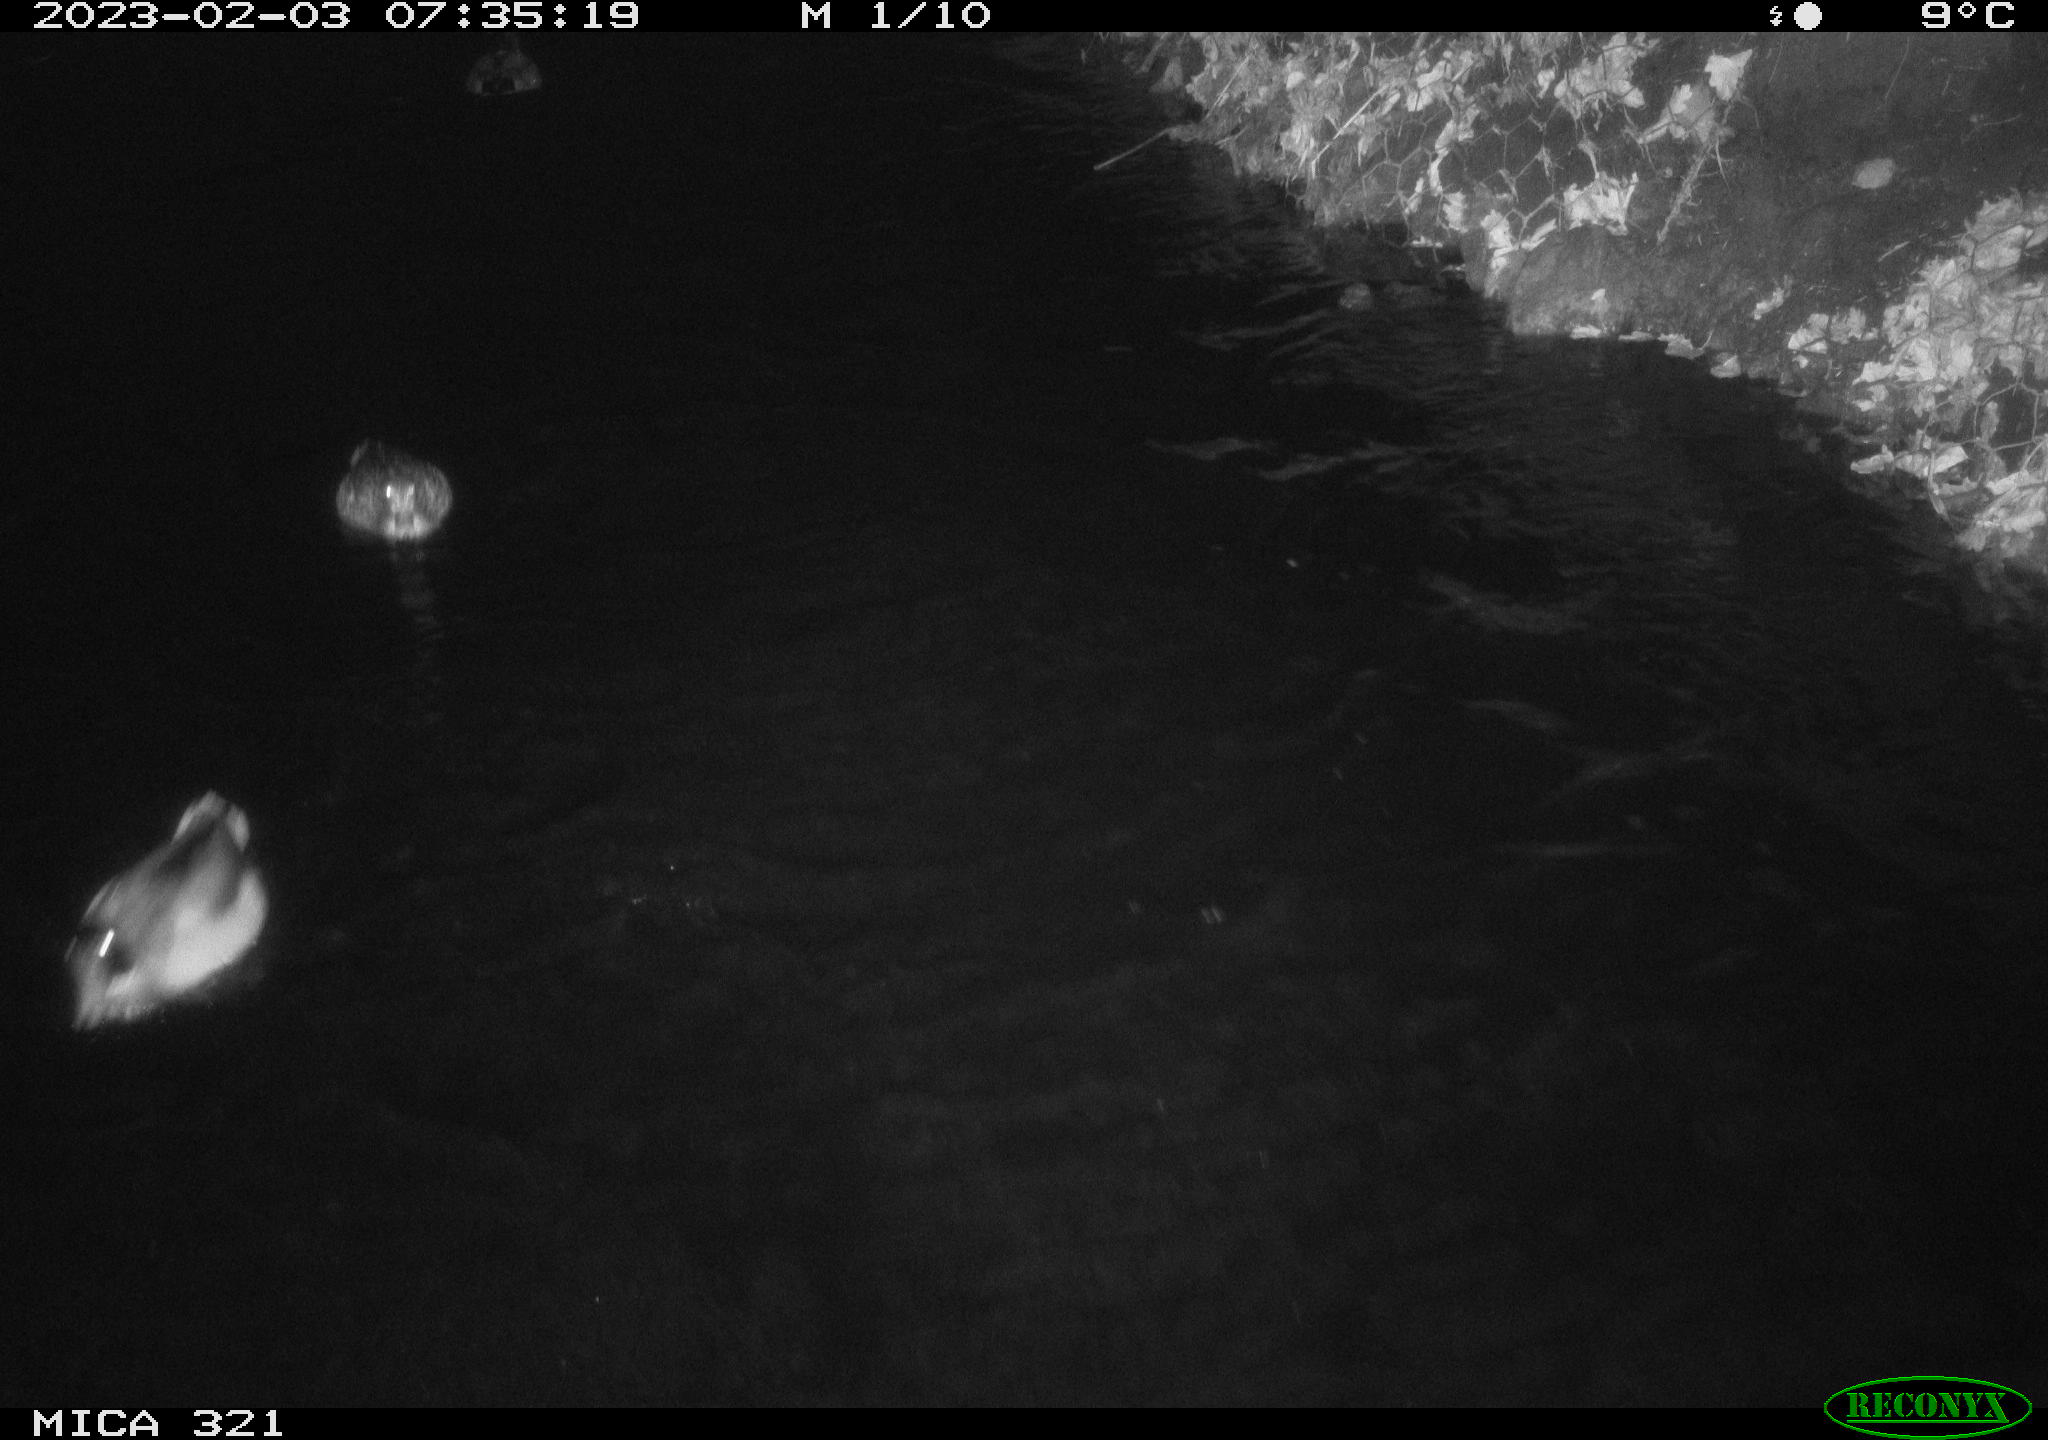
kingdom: Animalia
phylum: Chordata
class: Aves
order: Anseriformes
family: Anatidae
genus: Anas
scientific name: Anas
